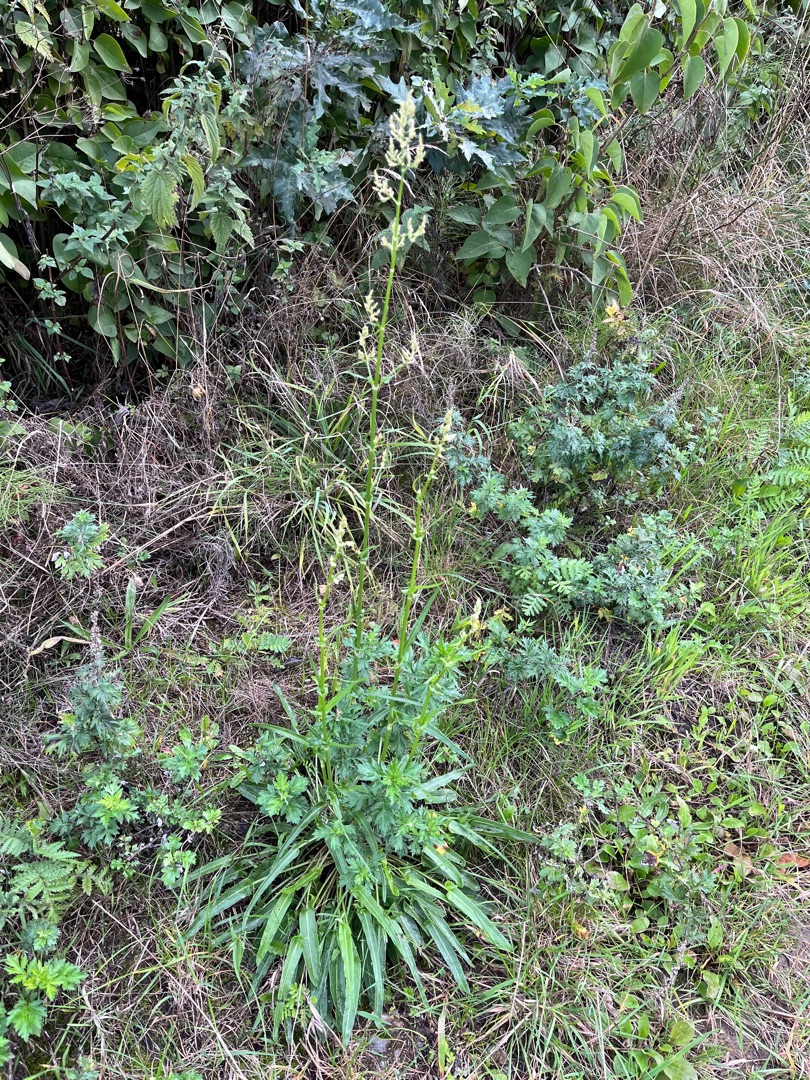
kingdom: Plantae
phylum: Tracheophyta
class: Magnoliopsida
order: Caryophyllales
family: Polygonaceae
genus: Rumex
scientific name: Rumex thyrsiflorus
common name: Dusk-syre
